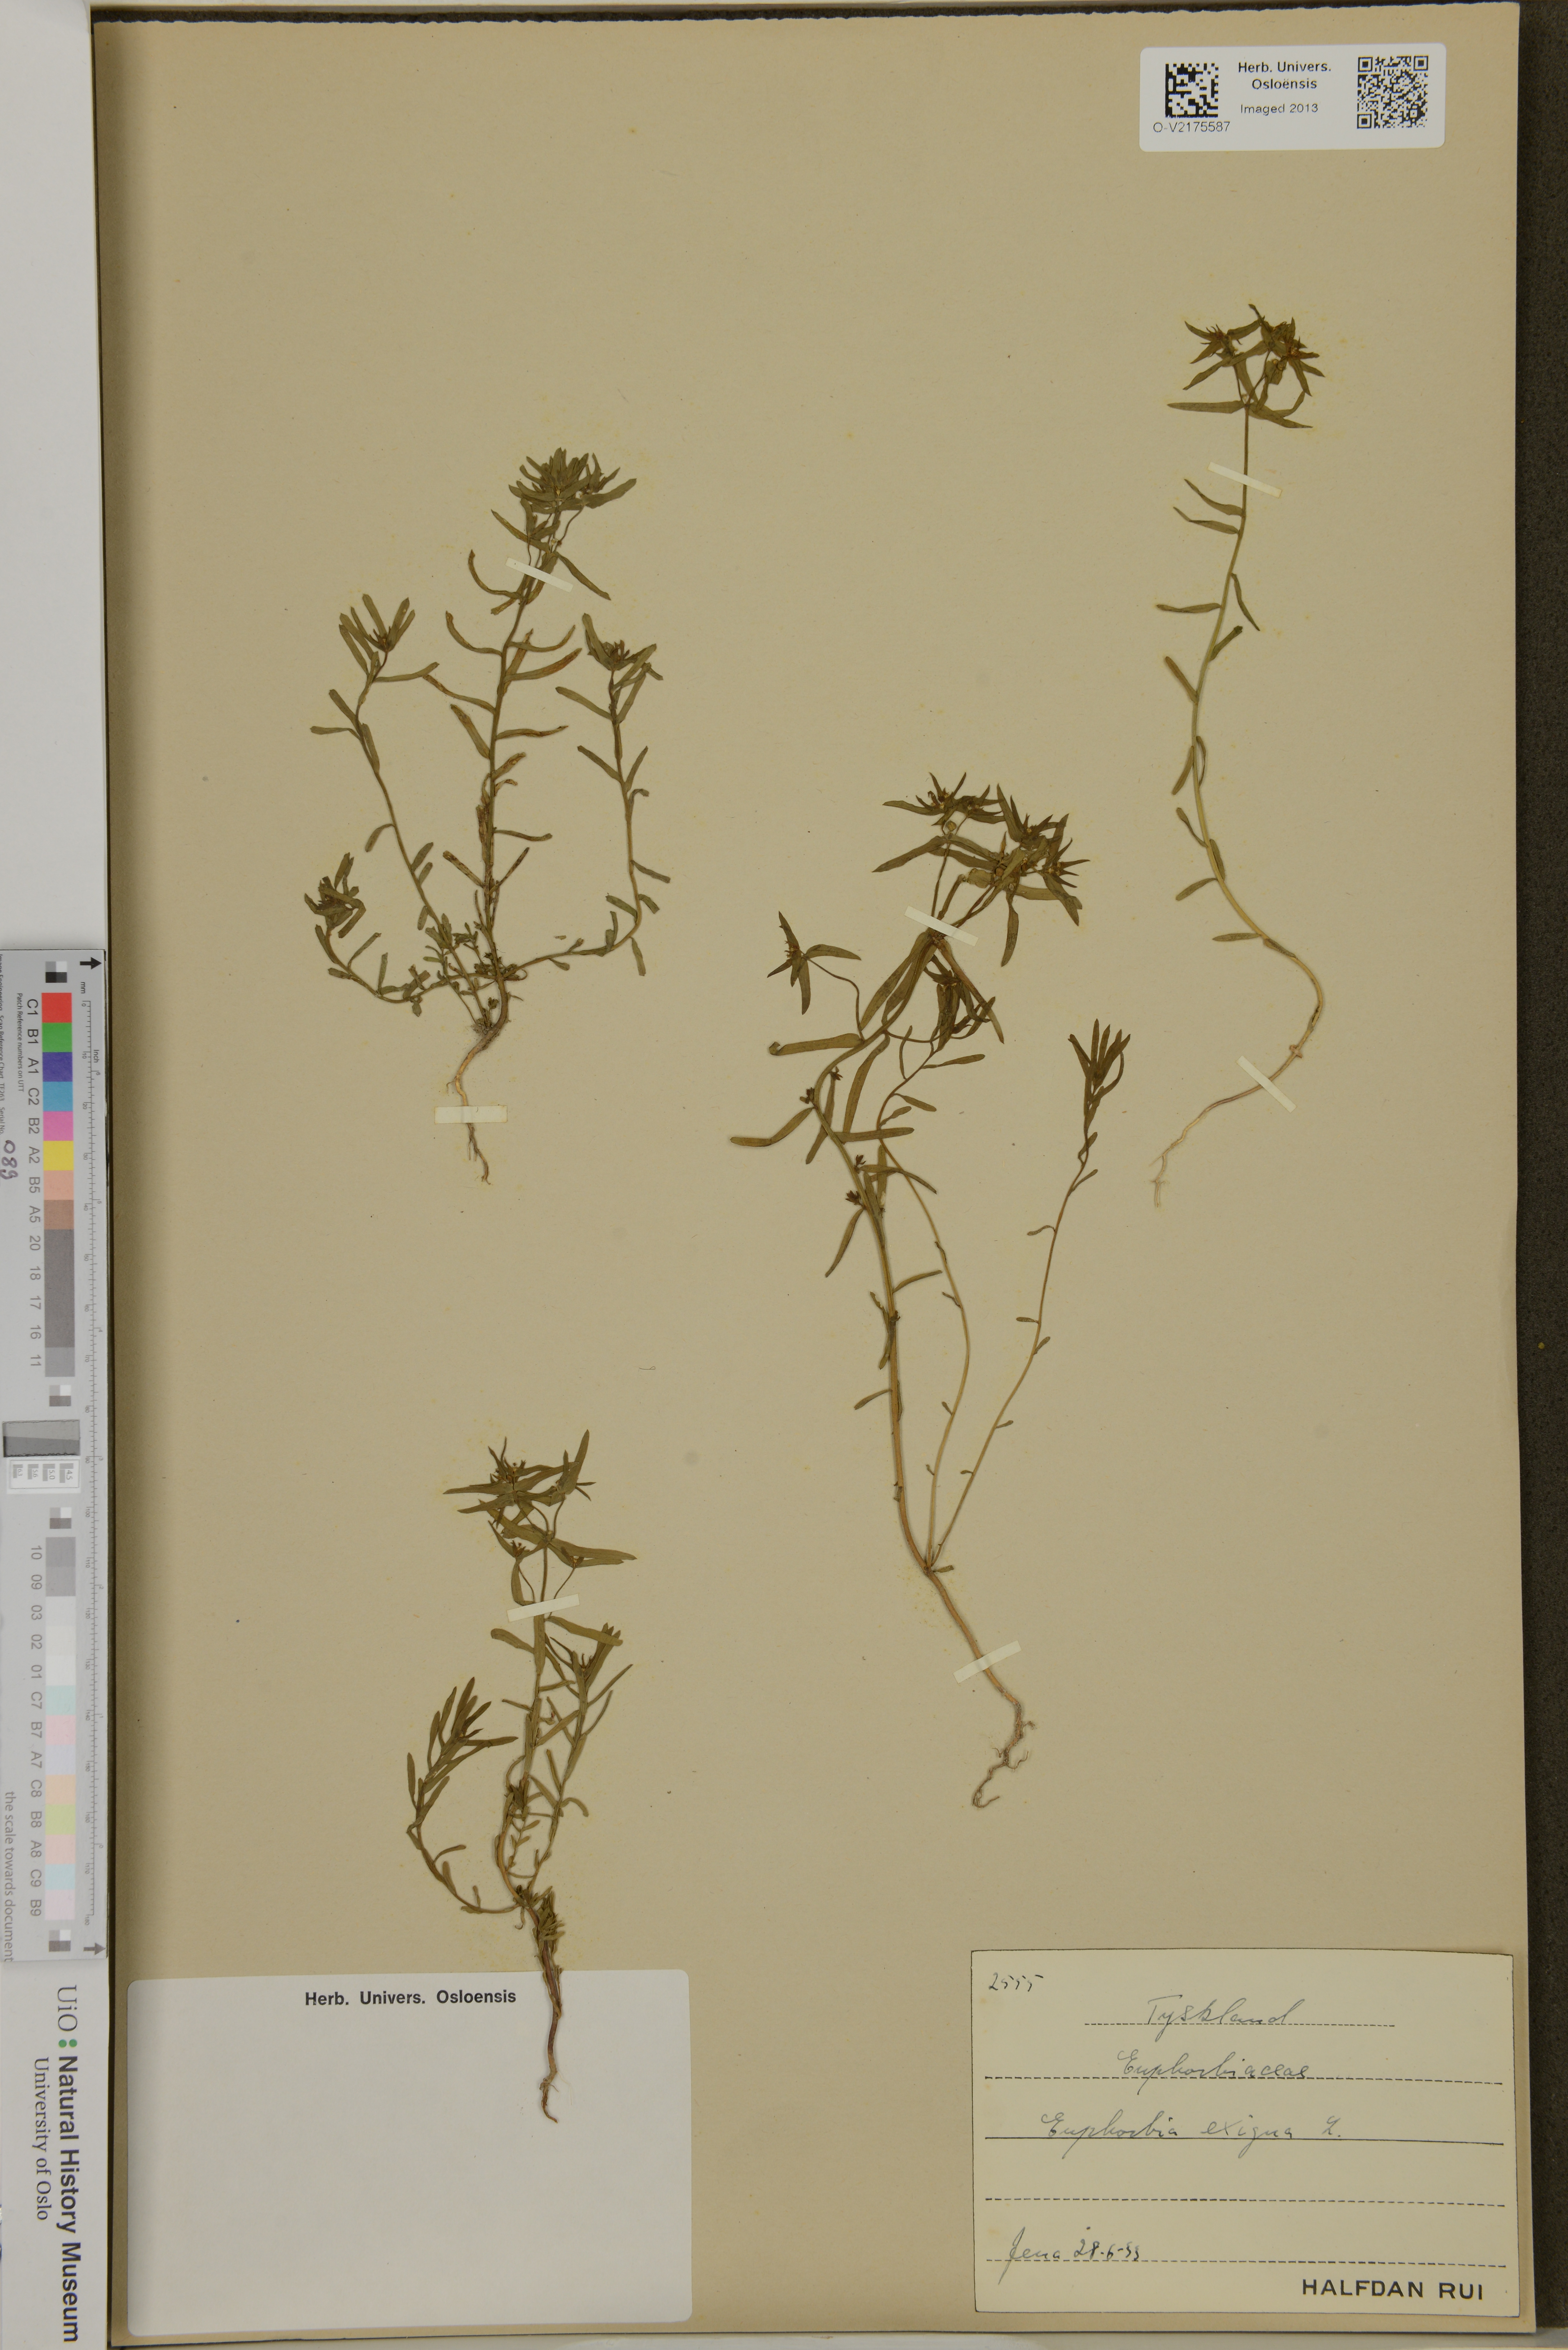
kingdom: Plantae
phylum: Tracheophyta
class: Magnoliopsida
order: Malpighiales
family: Euphorbiaceae
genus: Euphorbia
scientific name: Euphorbia exigua
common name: Dwarf spurge
